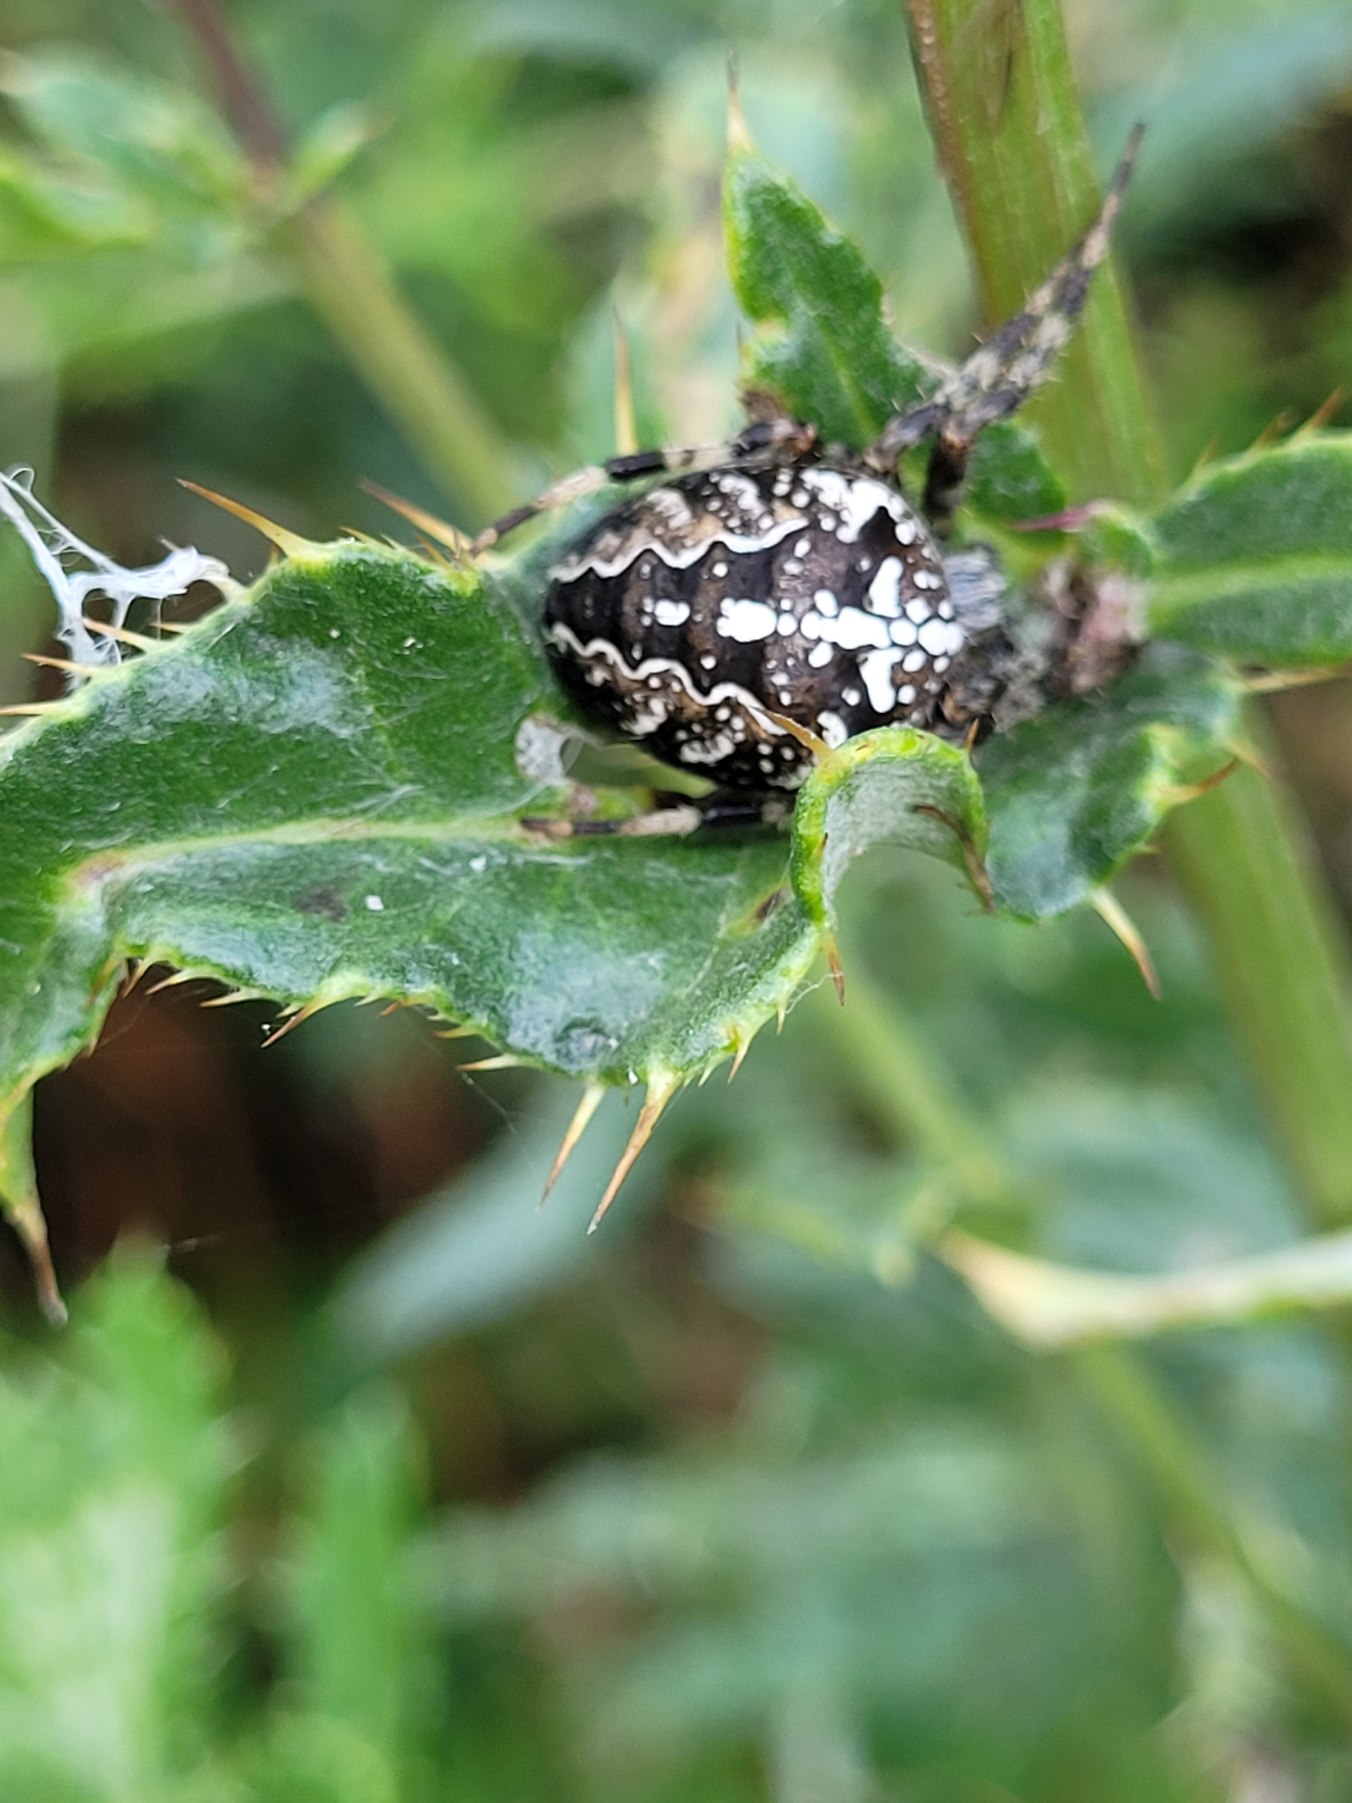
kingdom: Animalia
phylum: Arthropoda
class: Arachnida
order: Araneae
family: Araneidae
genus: Araneus
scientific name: Araneus diadematus
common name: Korsedderkop
